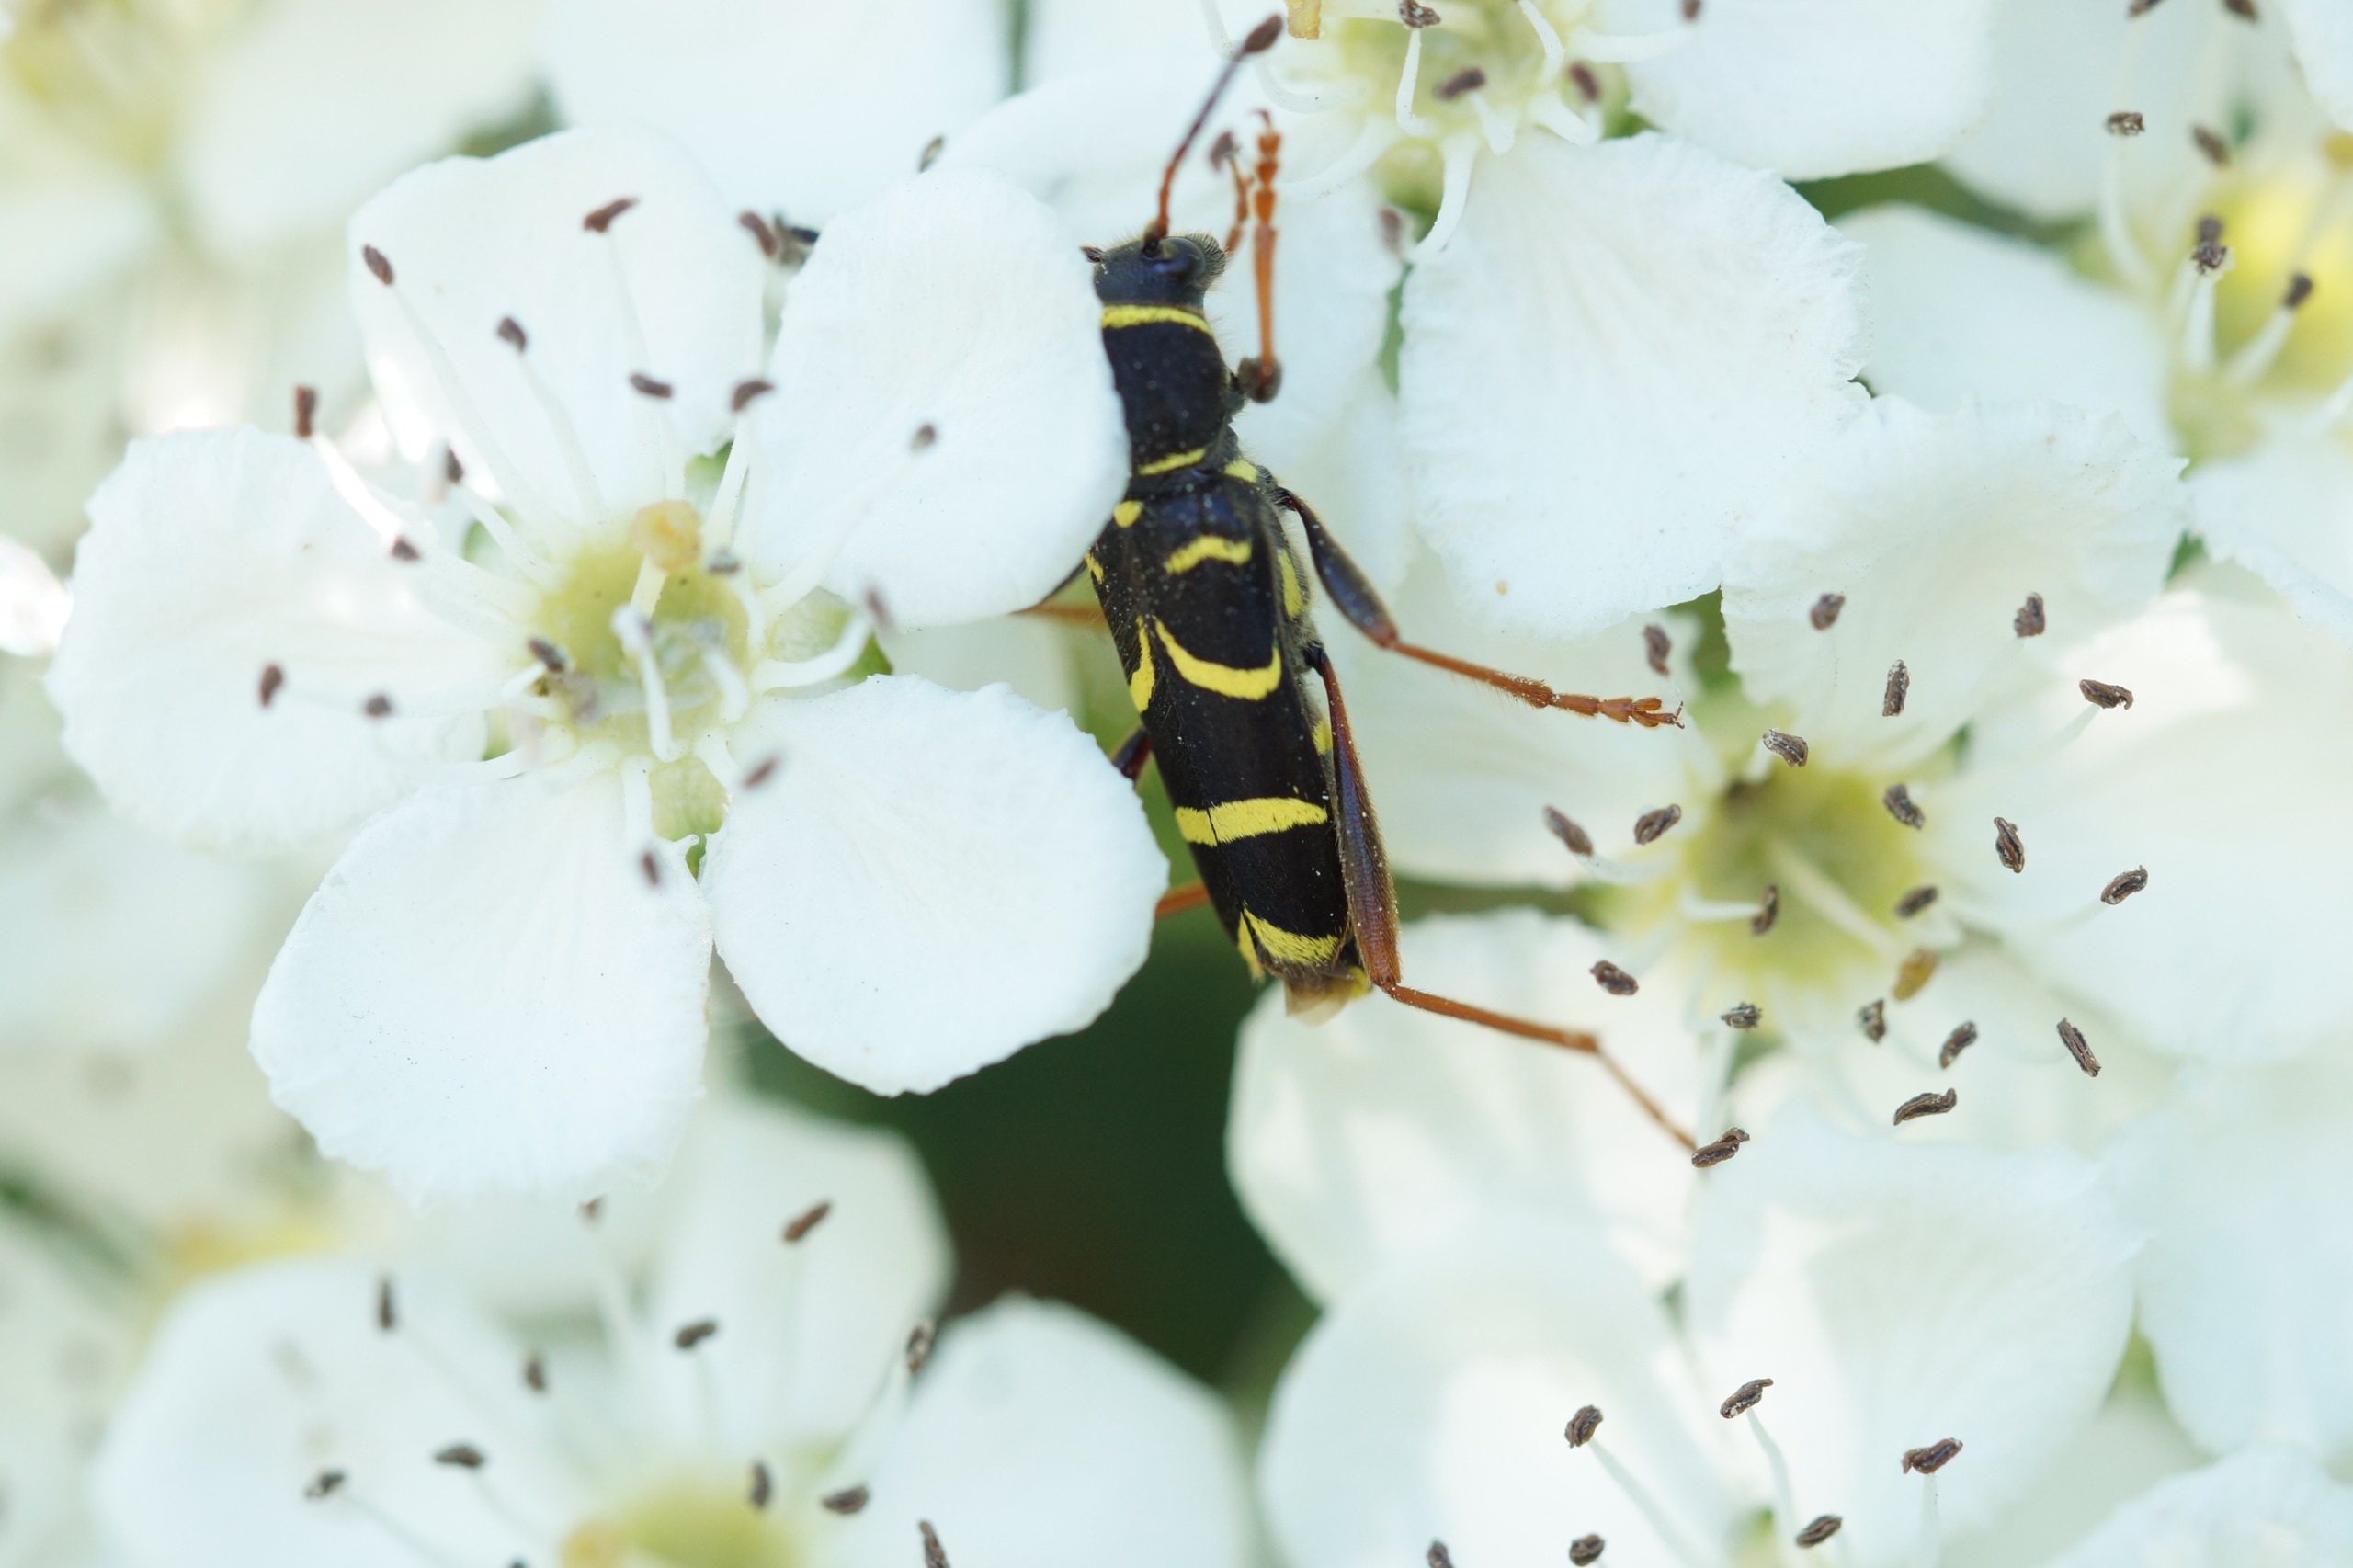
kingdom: Animalia
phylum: Arthropoda
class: Insecta
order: Coleoptera
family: Cerambycidae
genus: Clytus
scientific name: Clytus arietis
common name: Lille hvepsebuk
